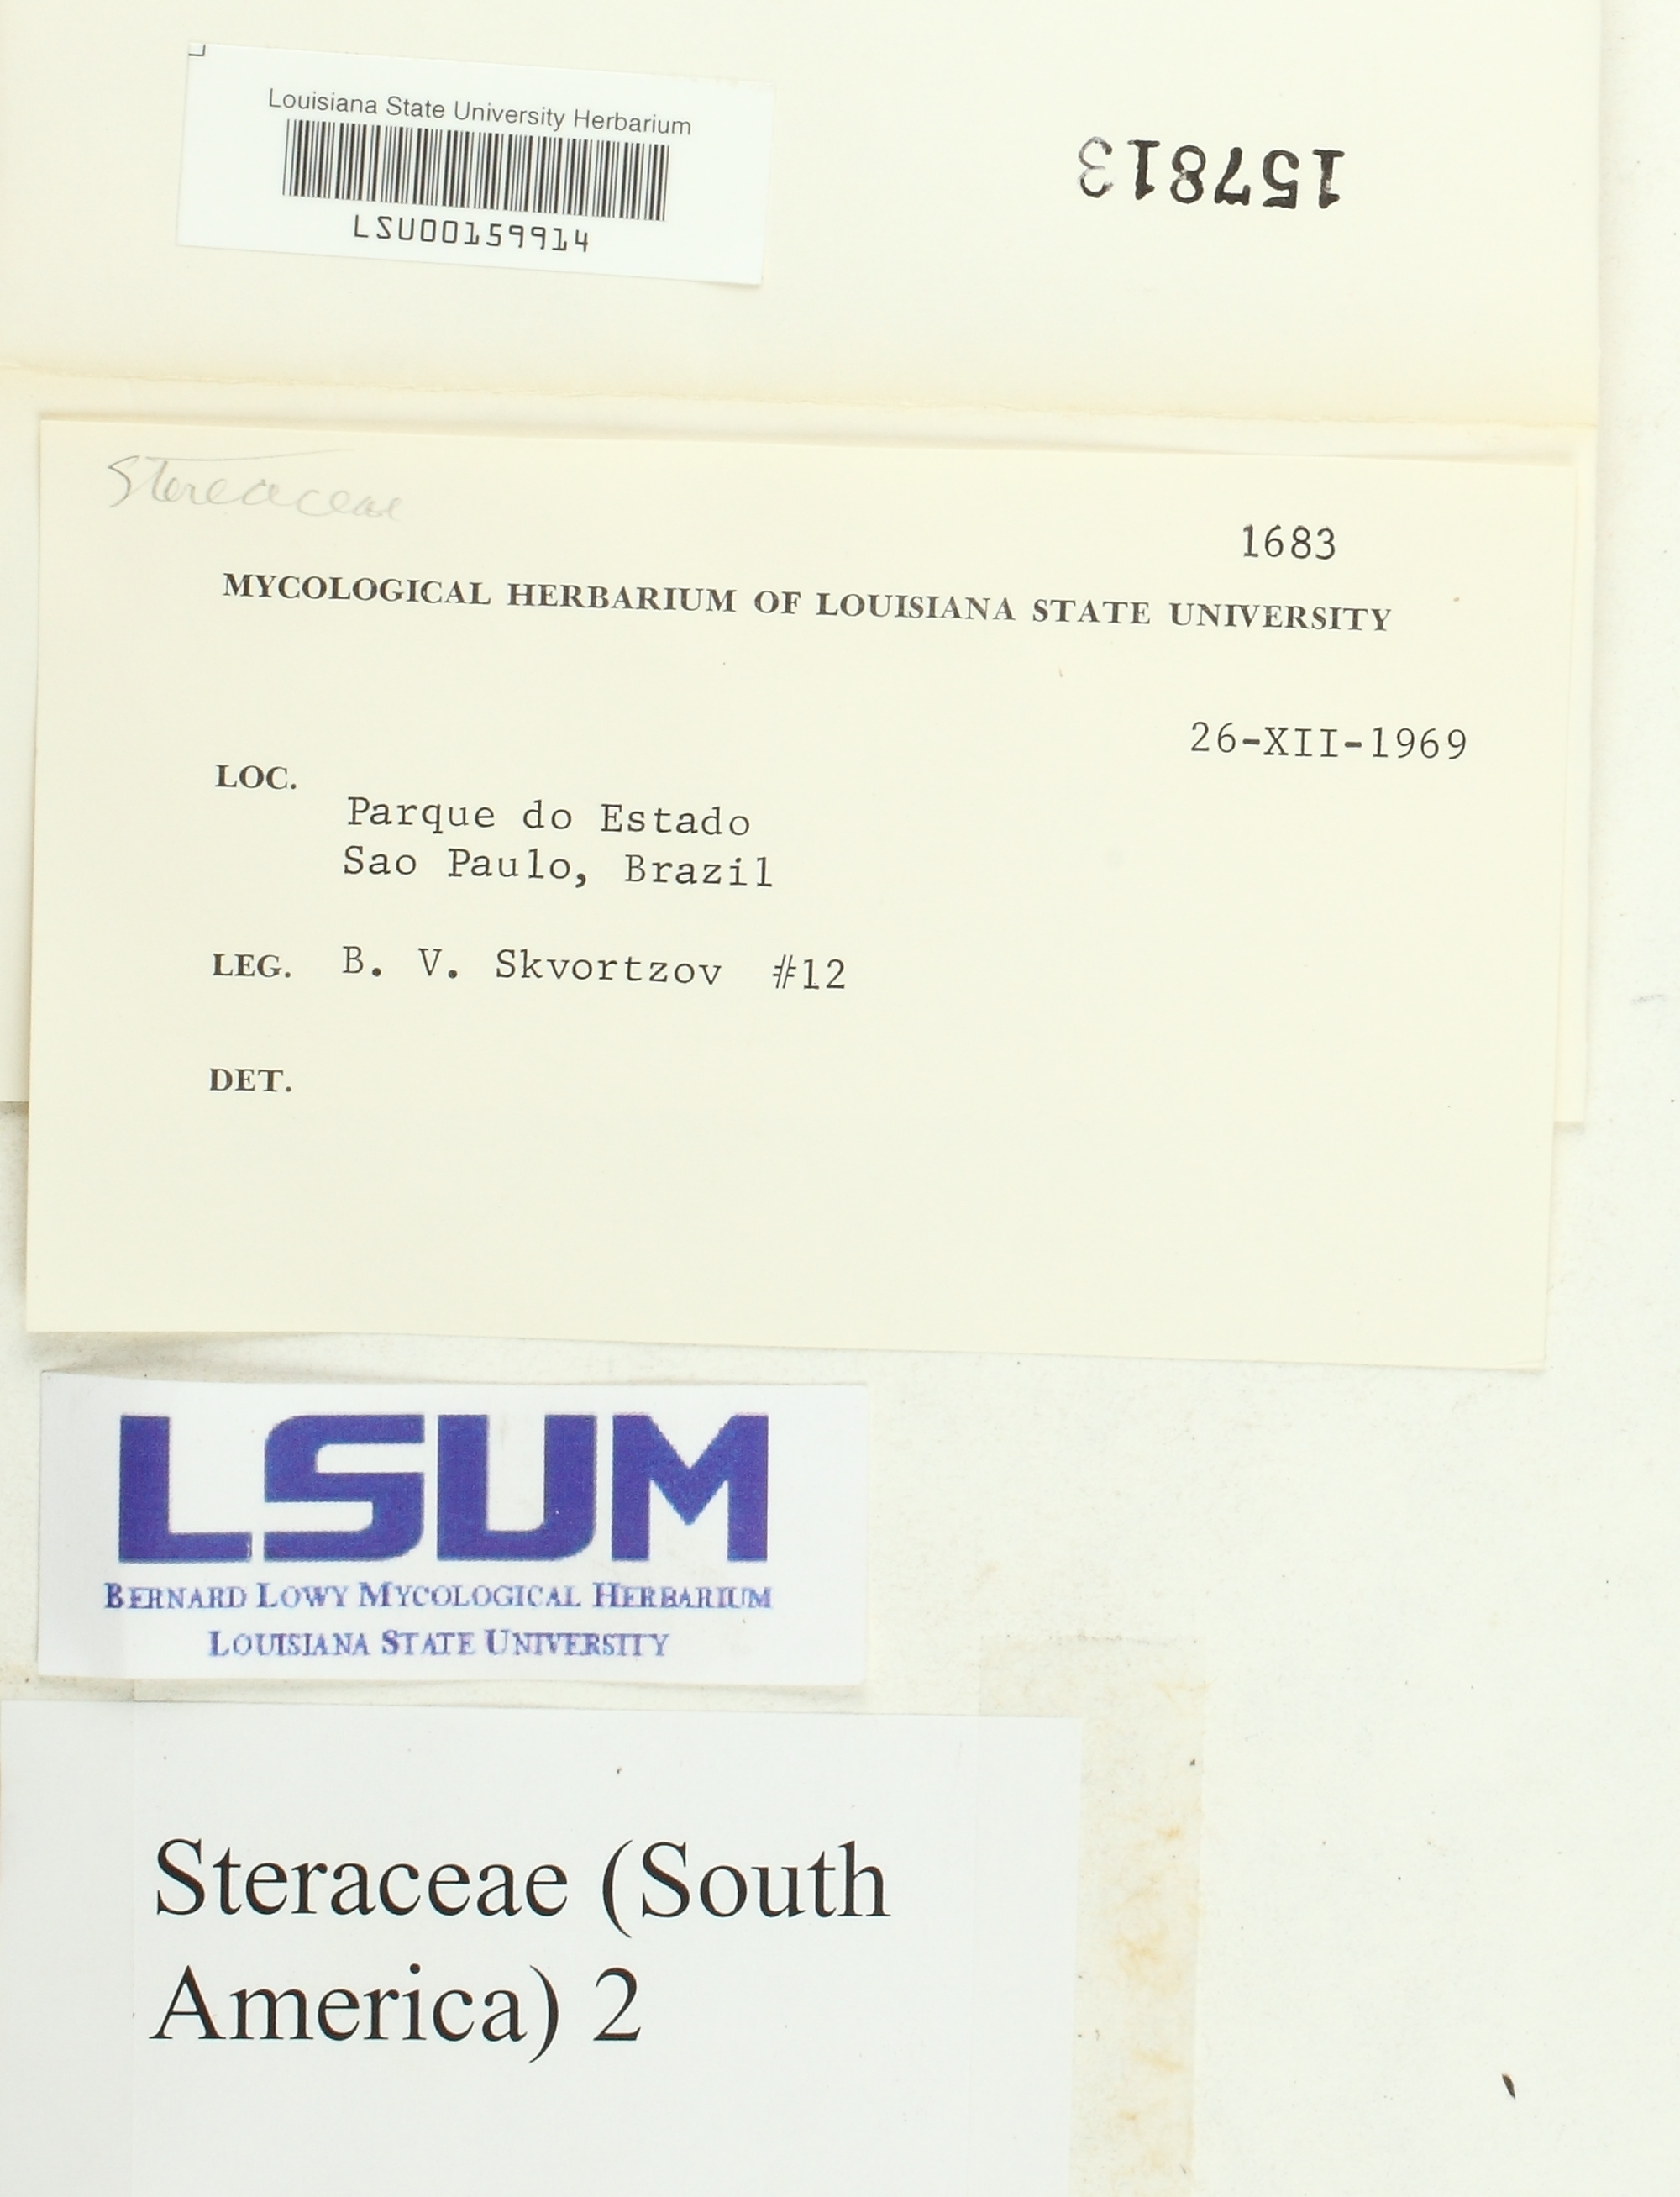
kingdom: Fungi
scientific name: Fungi
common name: Fungi
